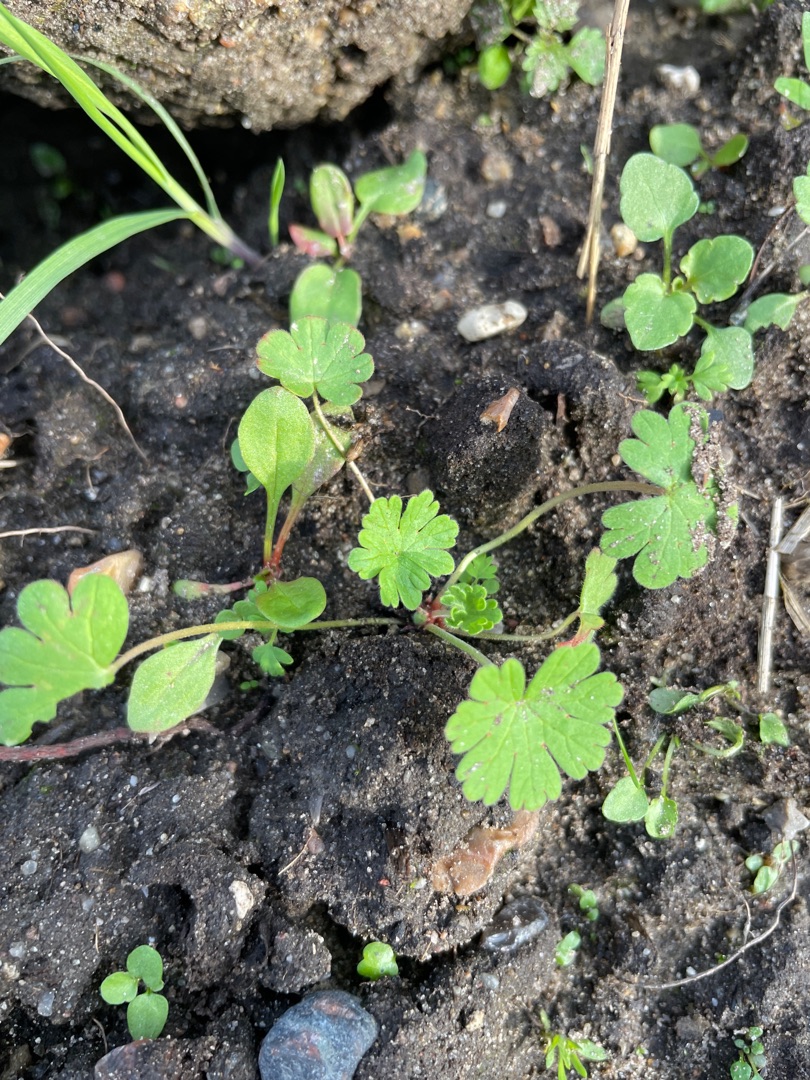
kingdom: Plantae
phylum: Tracheophyta
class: Magnoliopsida
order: Geraniales
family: Geraniaceae
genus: Geranium
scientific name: Geranium pusillum
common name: Liden storkenæb
